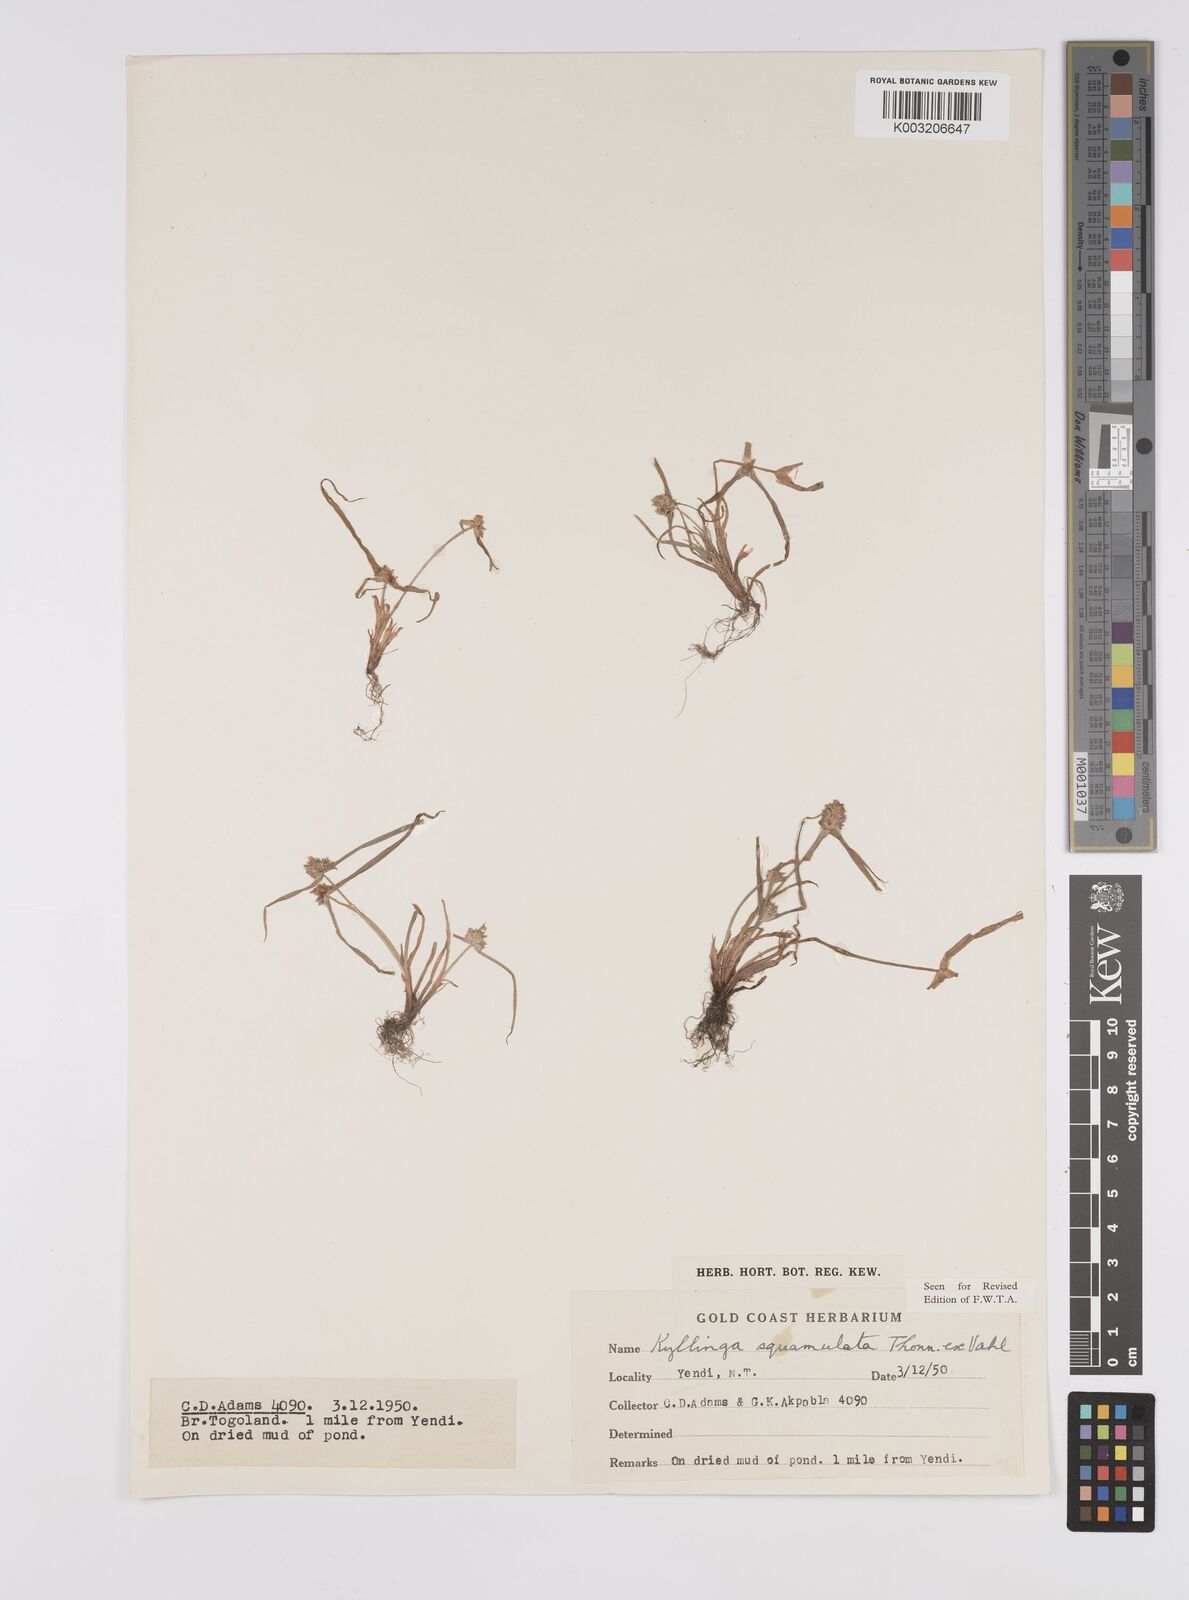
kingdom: Plantae
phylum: Tracheophyta
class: Liliopsida
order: Poales
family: Cyperaceae
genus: Cyperus
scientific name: Cyperus distans
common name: Slender cyperus
